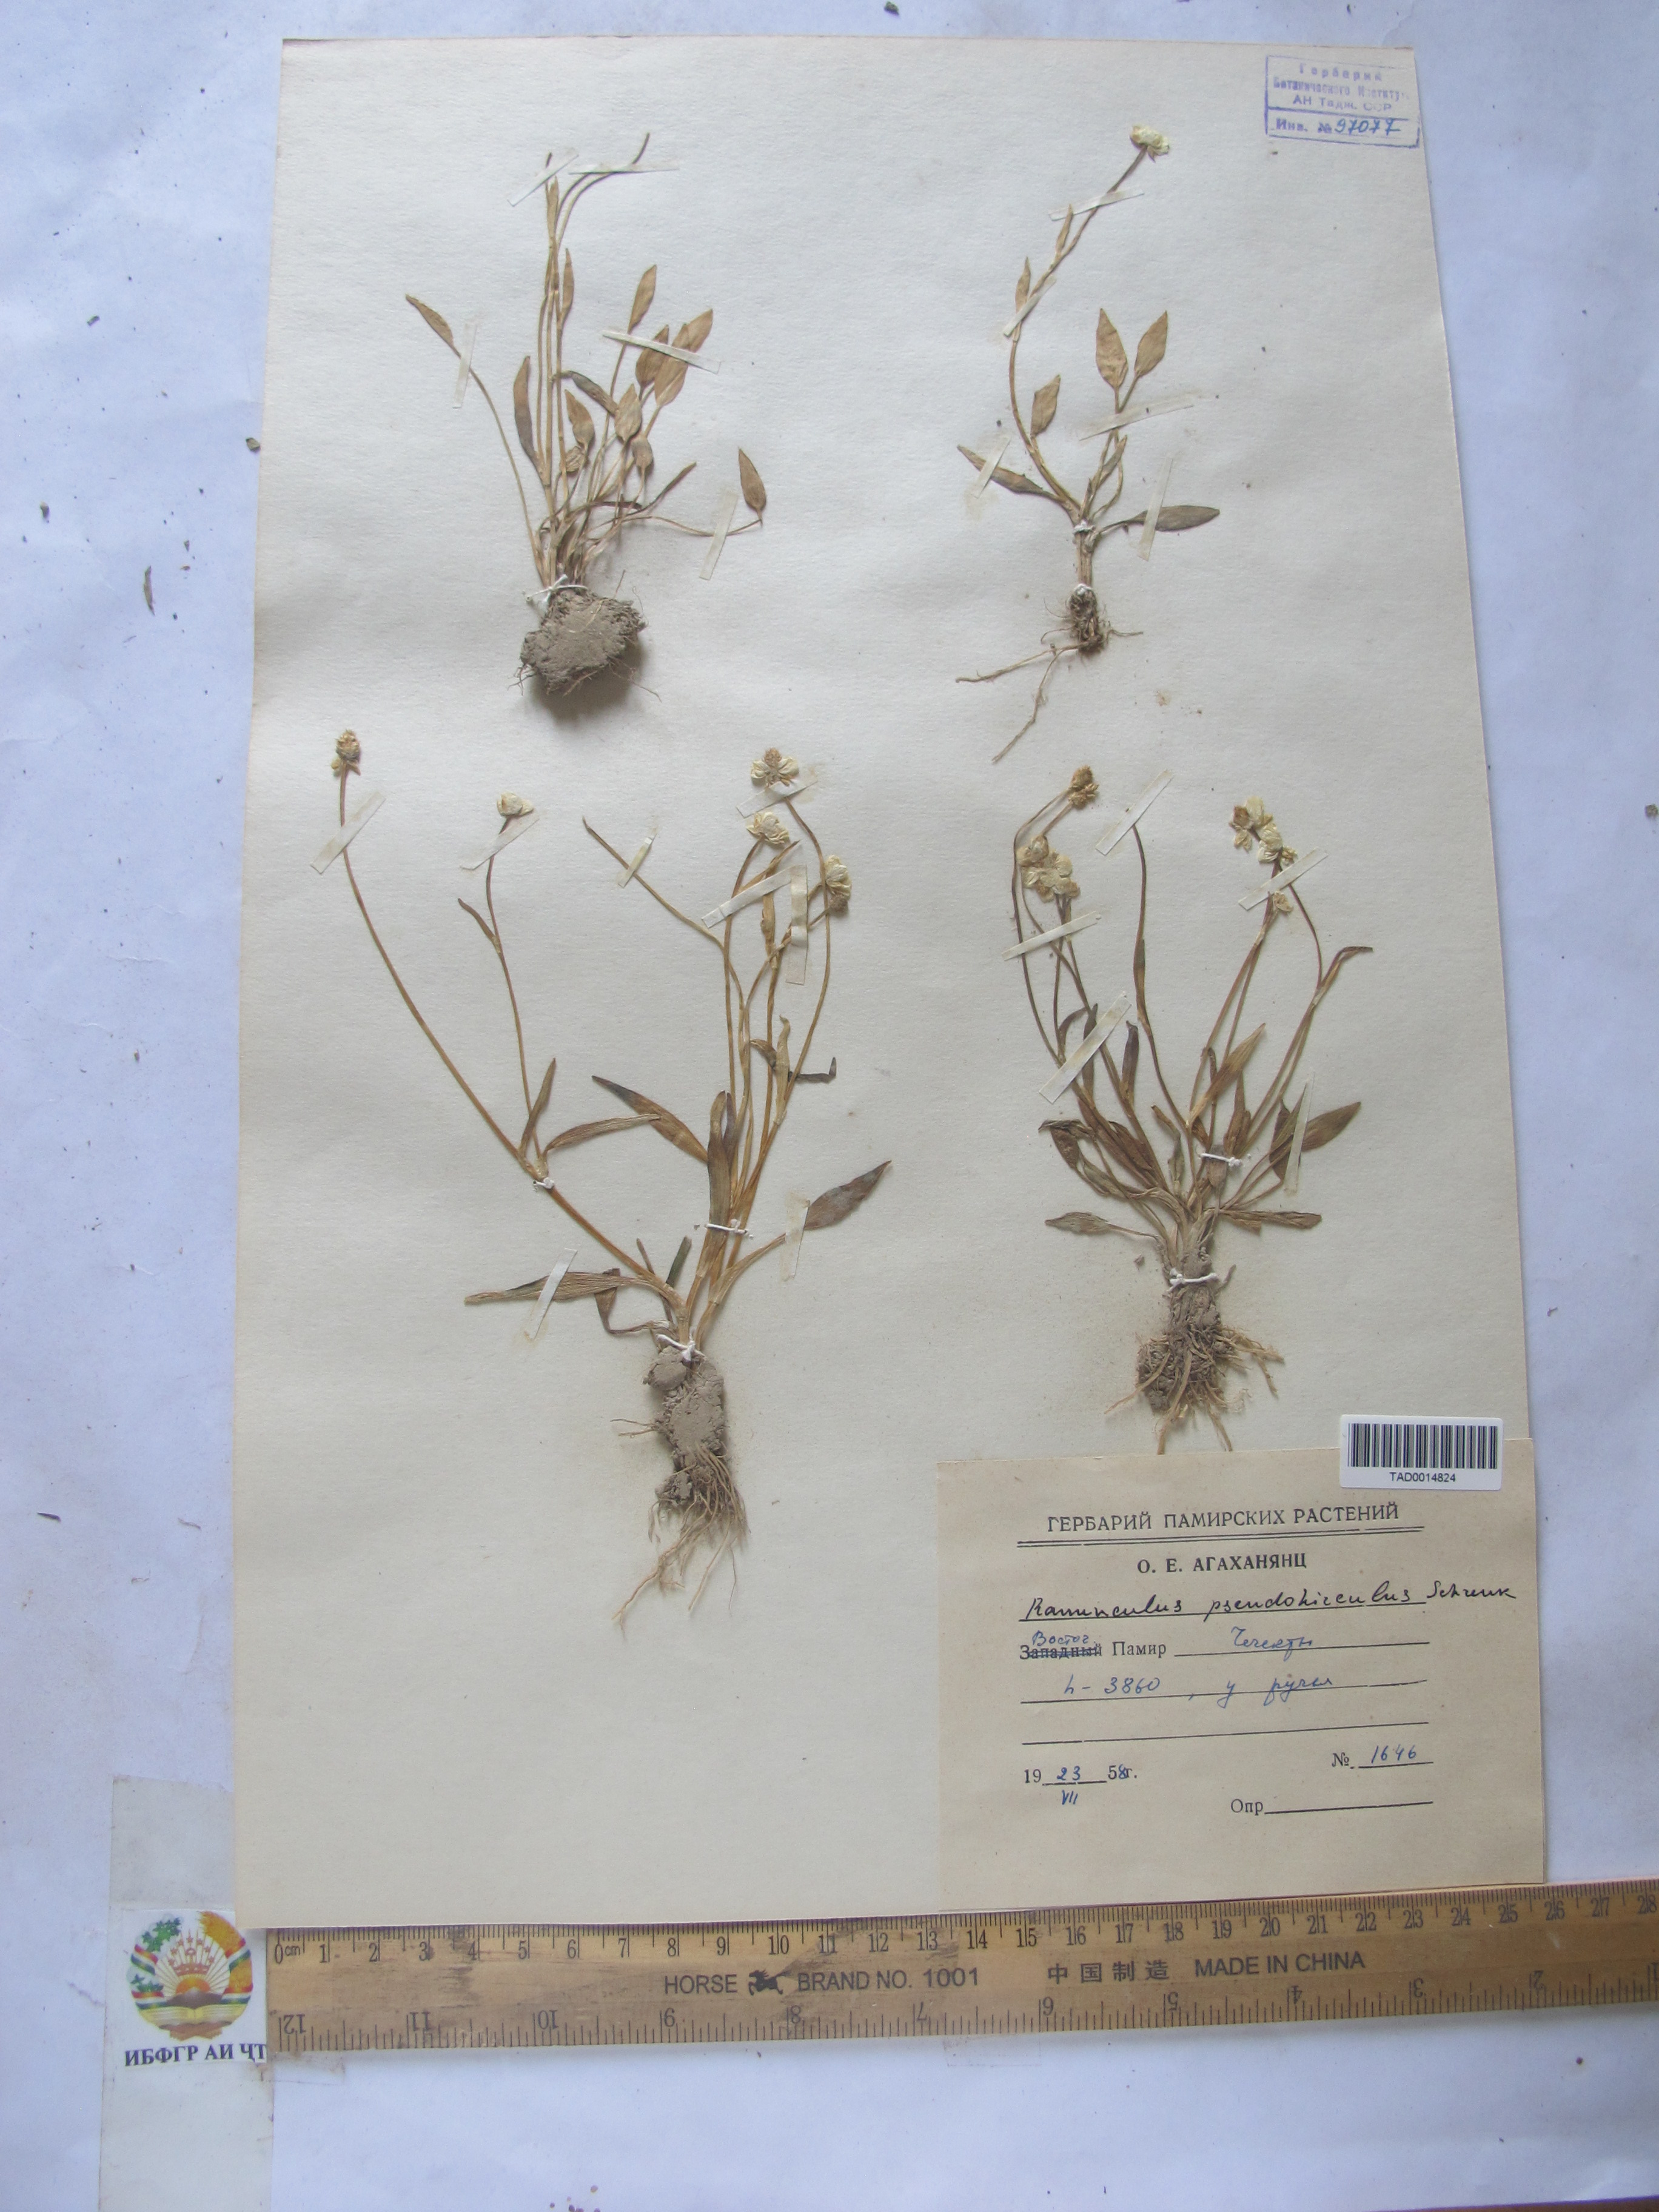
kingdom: Plantae
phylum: Tracheophyta
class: Magnoliopsida
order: Ranunculales
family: Ranunculaceae
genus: Ranunculus
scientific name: Ranunculus pseudohirculus
